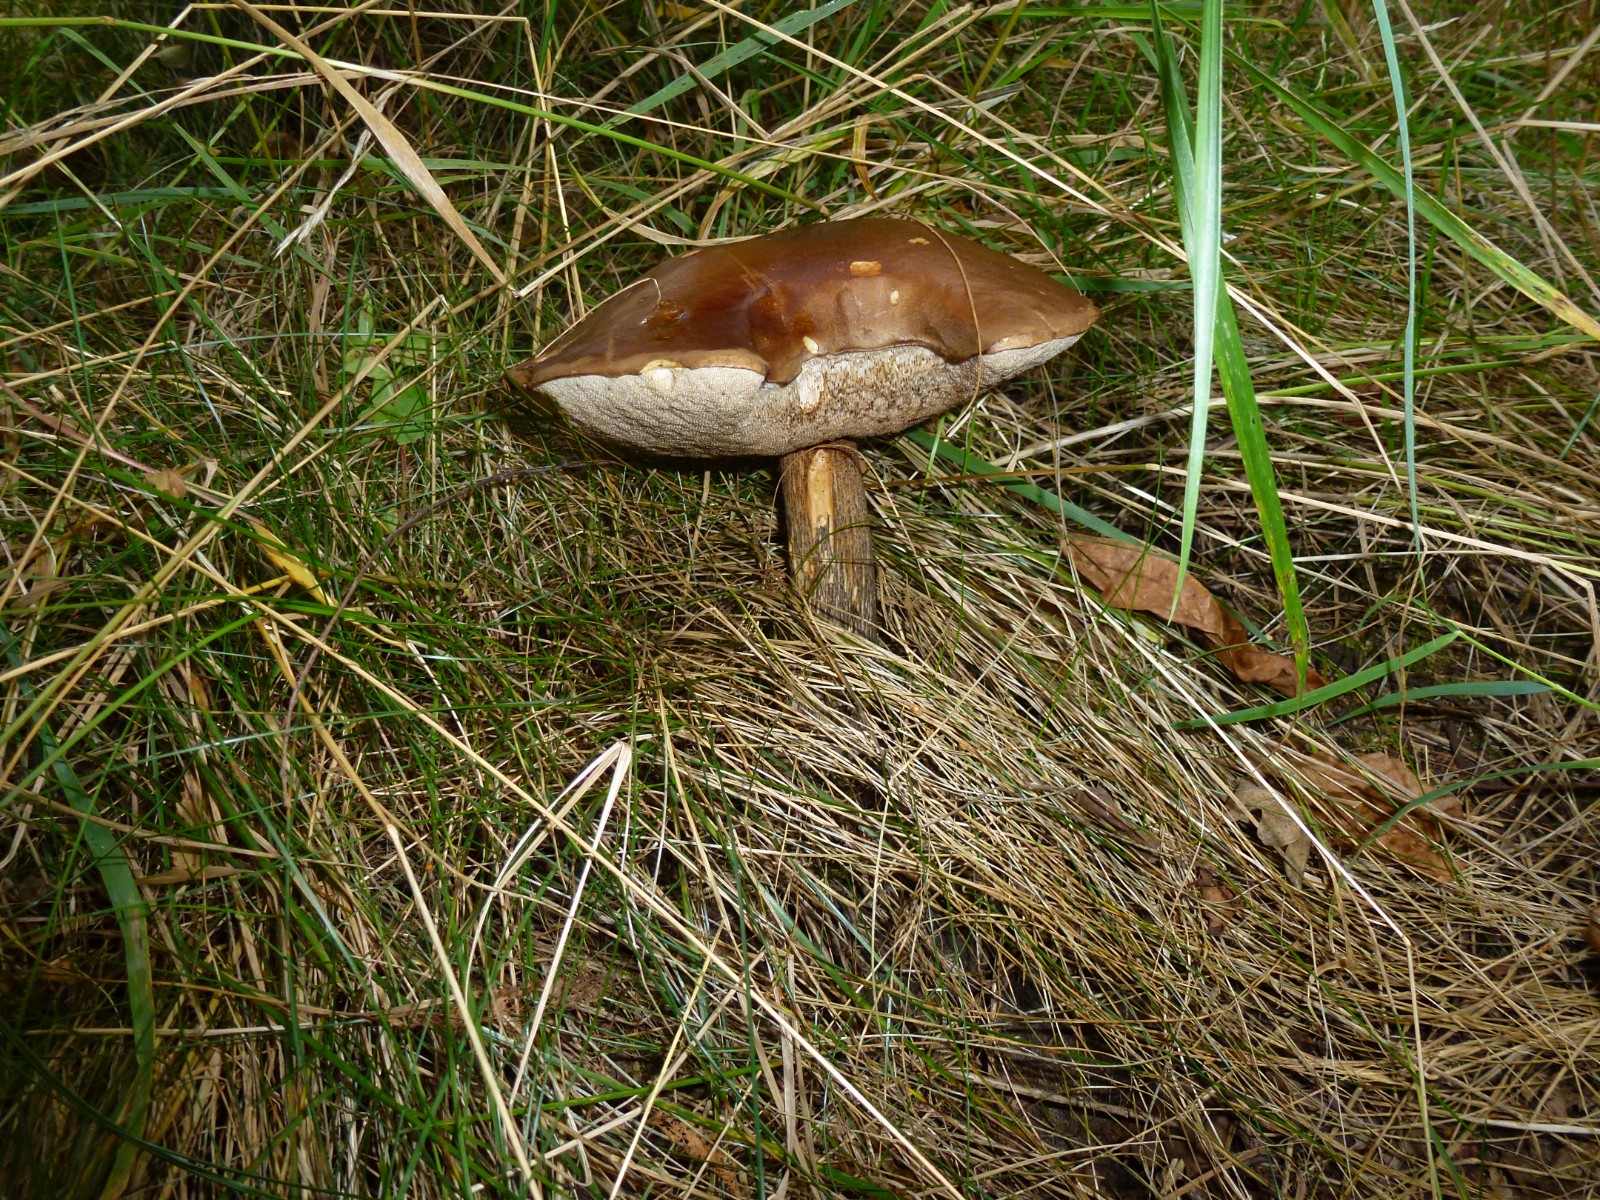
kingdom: Fungi
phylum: Basidiomycota
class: Agaricomycetes
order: Boletales
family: Boletaceae
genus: Leccinum
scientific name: Leccinum
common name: skælrørhat
